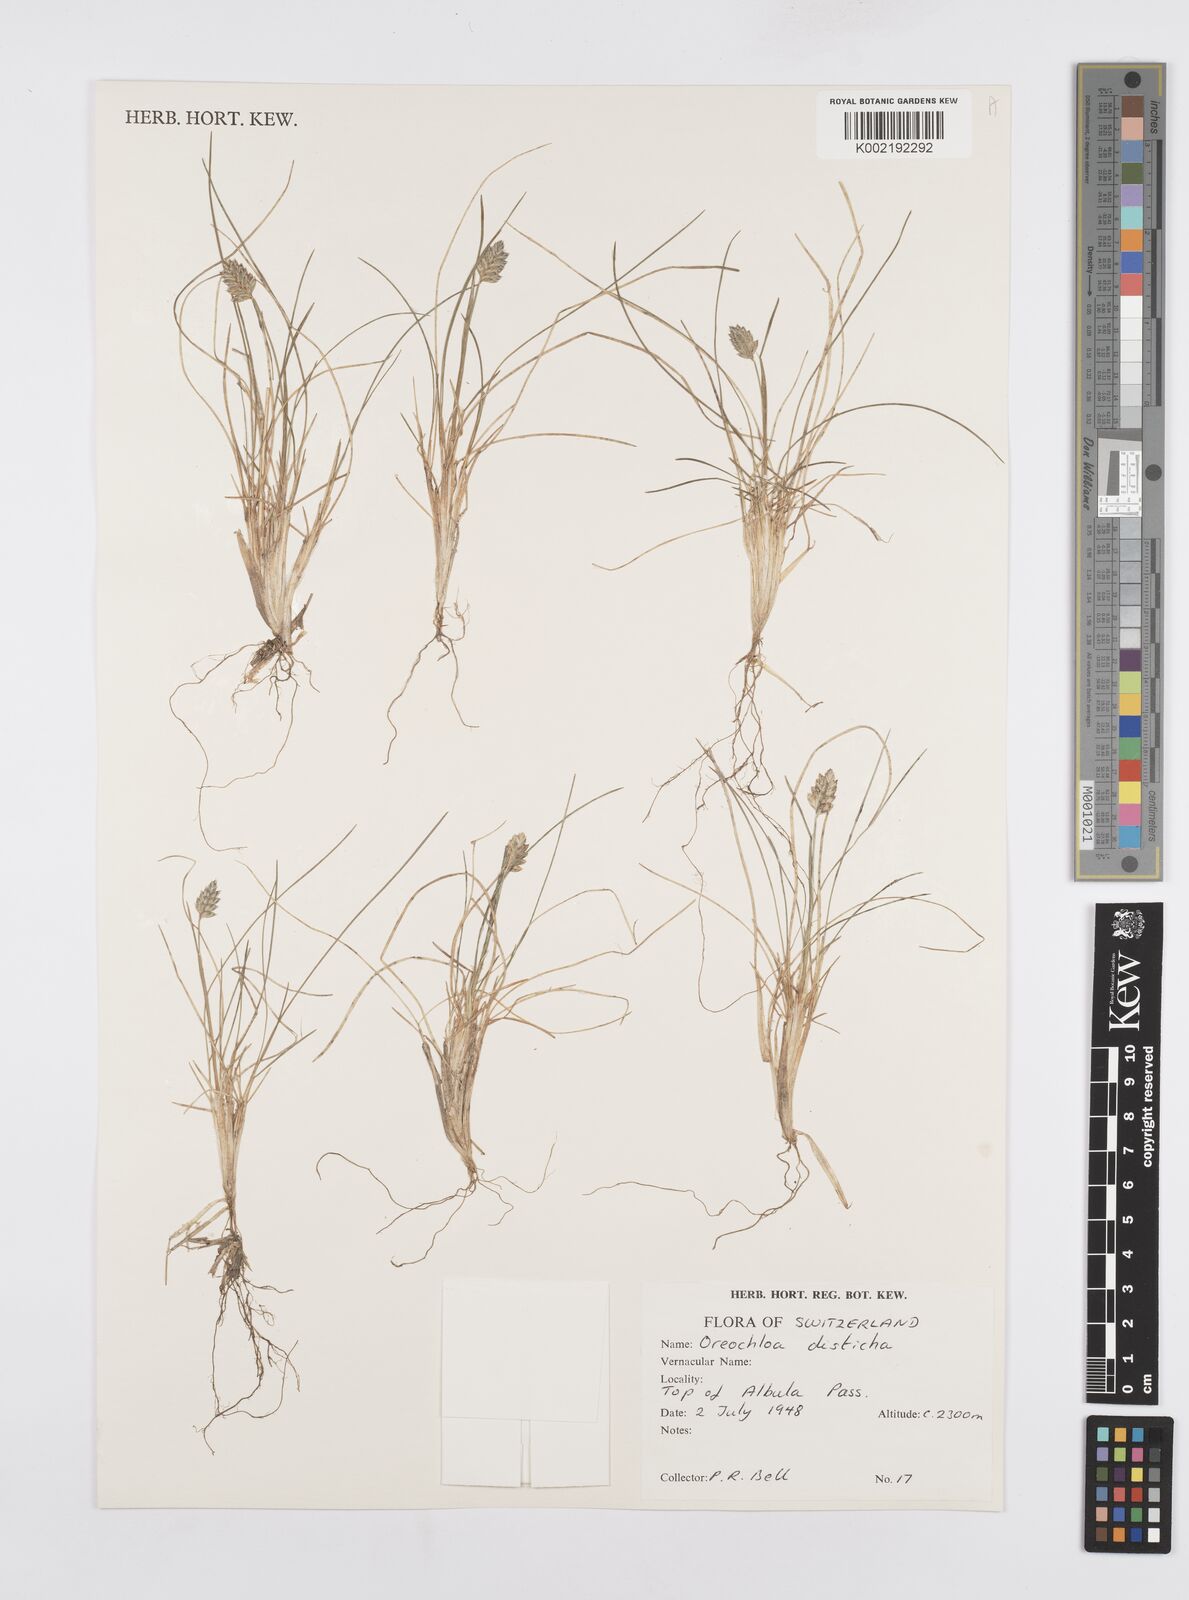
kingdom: Plantae
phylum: Tracheophyta
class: Liliopsida
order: Poales
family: Poaceae
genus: Oreochloa
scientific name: Oreochloa disticha
